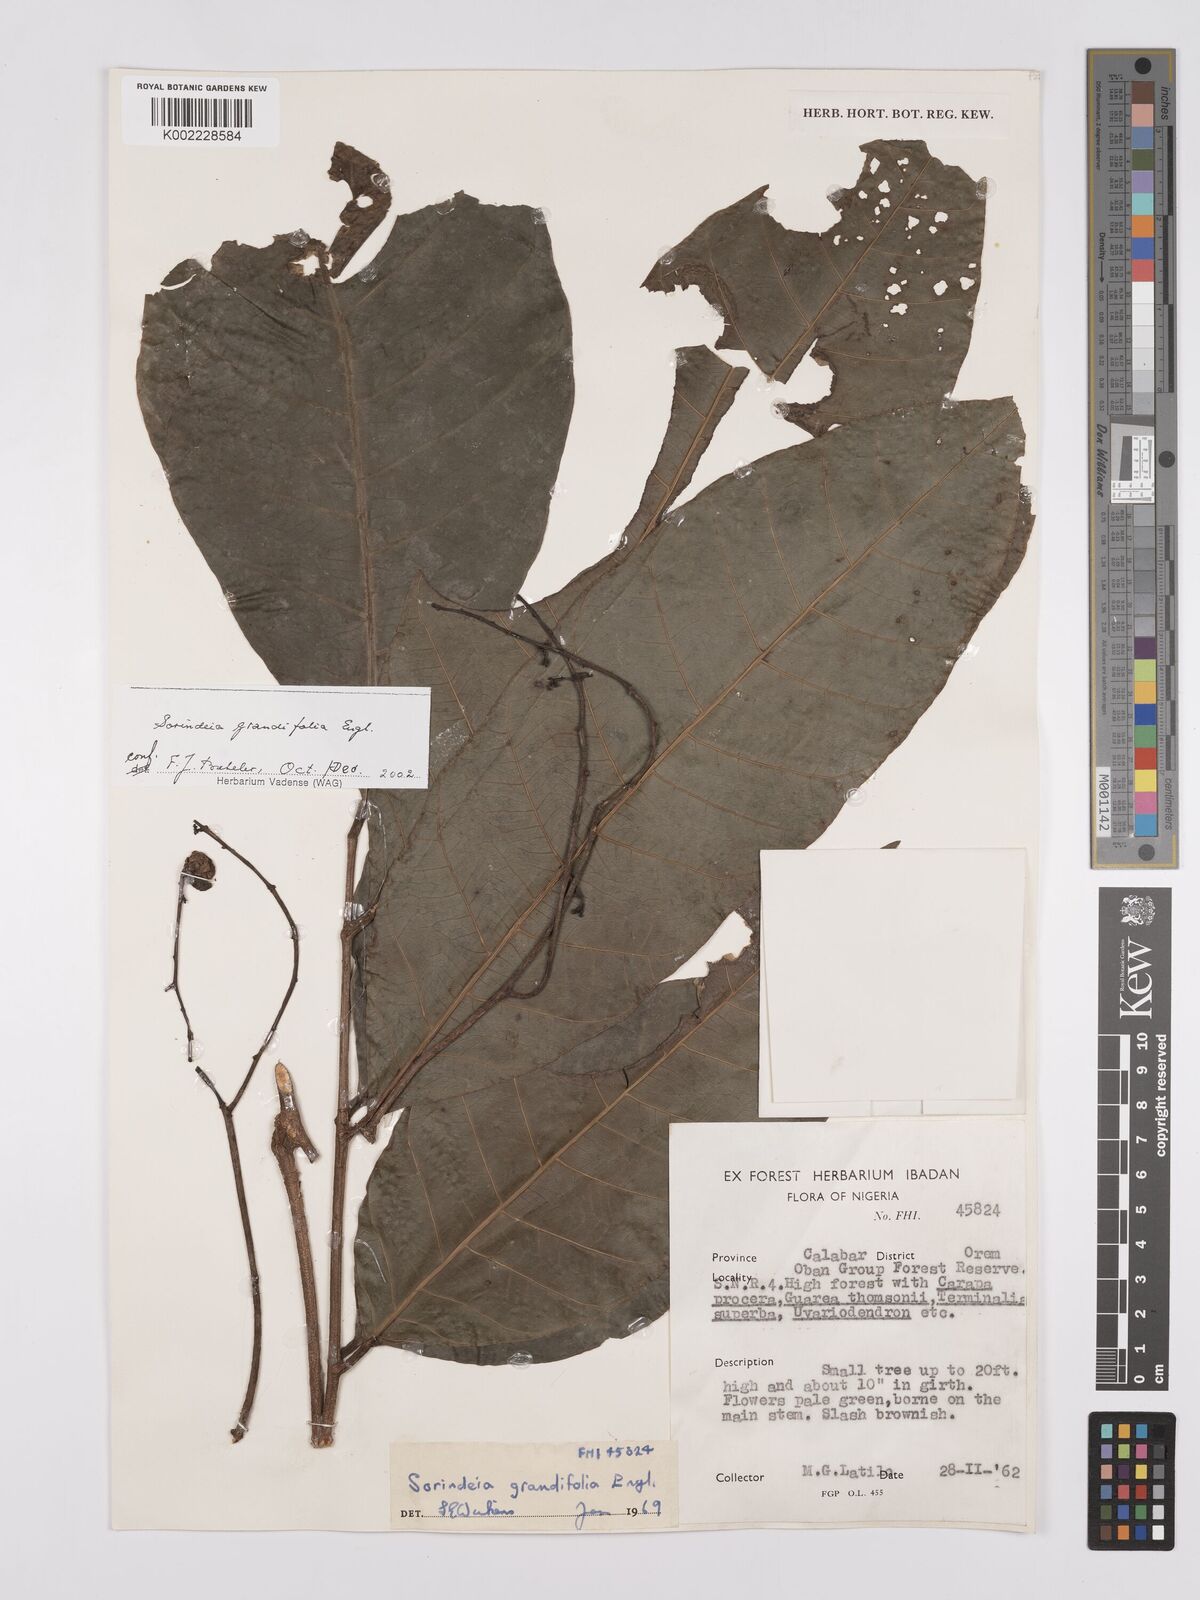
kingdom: Plantae
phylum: Tracheophyta
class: Magnoliopsida
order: Sapindales
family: Anacardiaceae
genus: Sorindeia
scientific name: Sorindeia grandifolia
